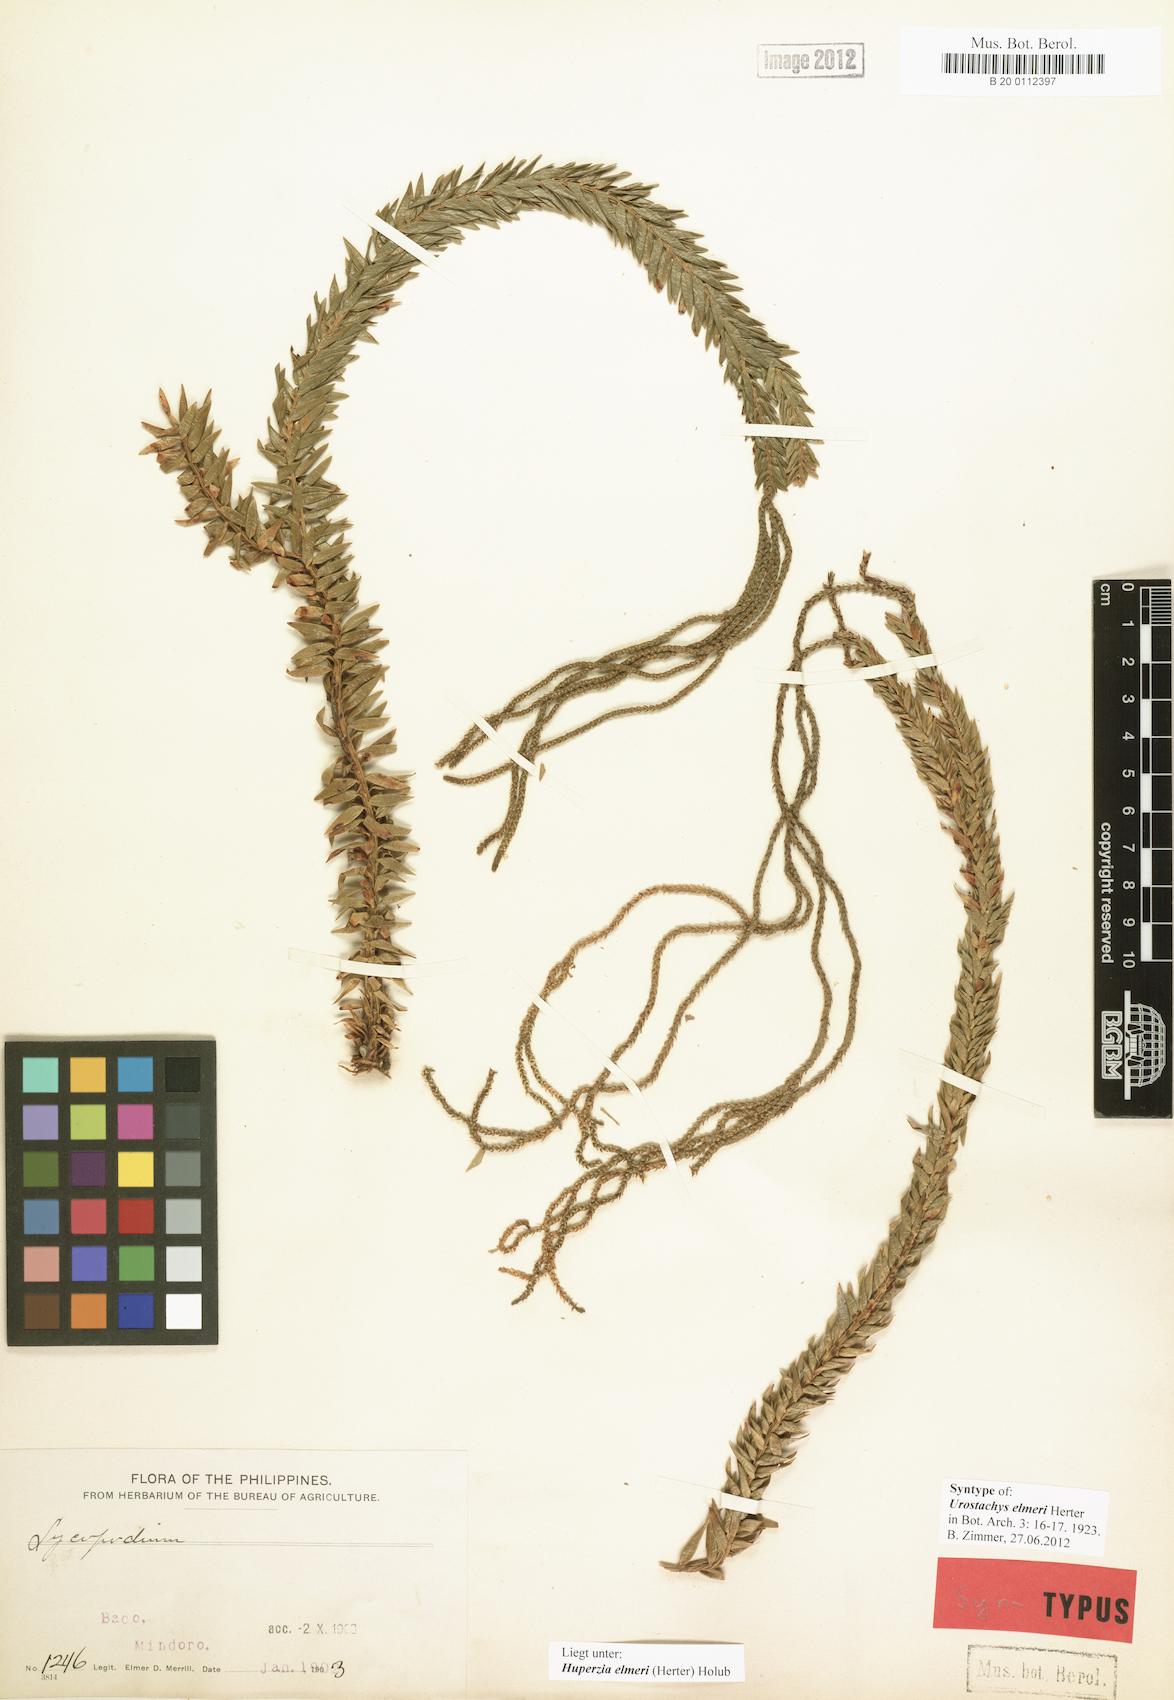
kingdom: Plantae
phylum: Tracheophyta
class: Lycopodiopsida
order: Lycopodiales
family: Lycopodiaceae
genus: Phlegmariurus
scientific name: Phlegmariurus elmeri
